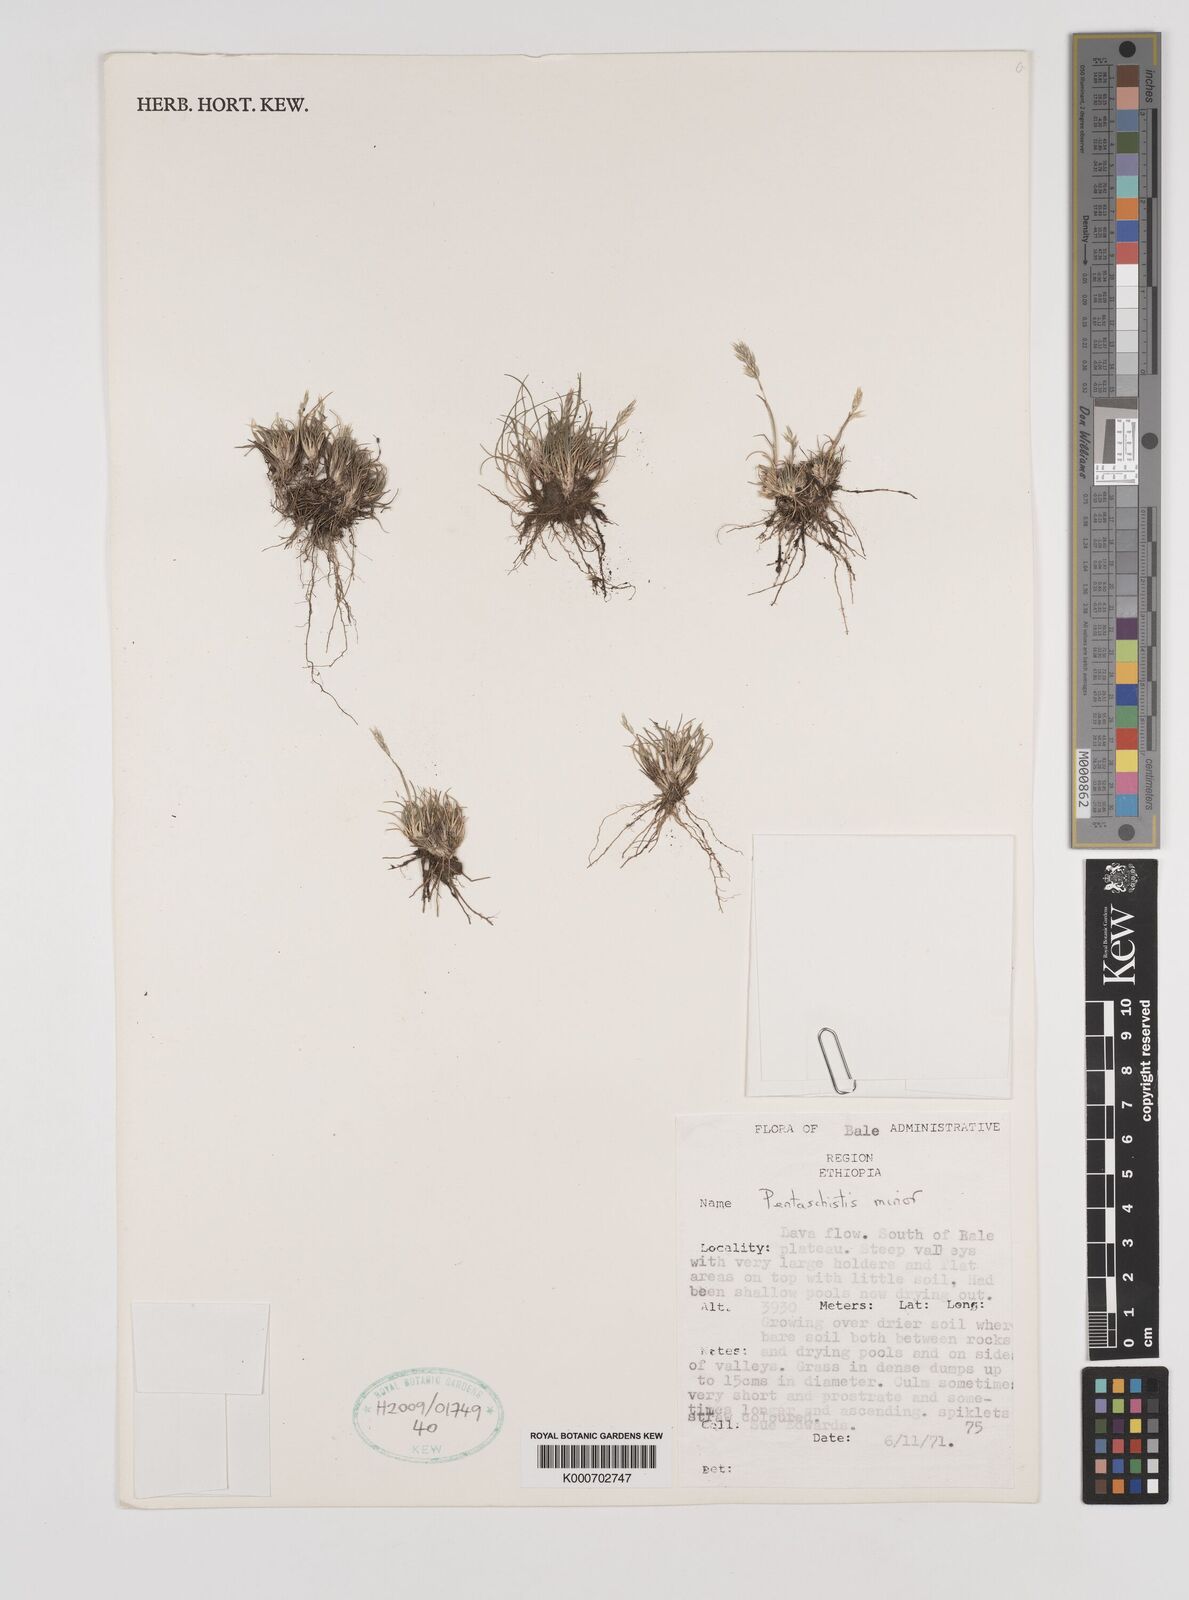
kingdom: Plantae
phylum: Tracheophyta
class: Liliopsida
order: Poales
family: Poaceae
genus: Pentameris
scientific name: Pentameris minor
